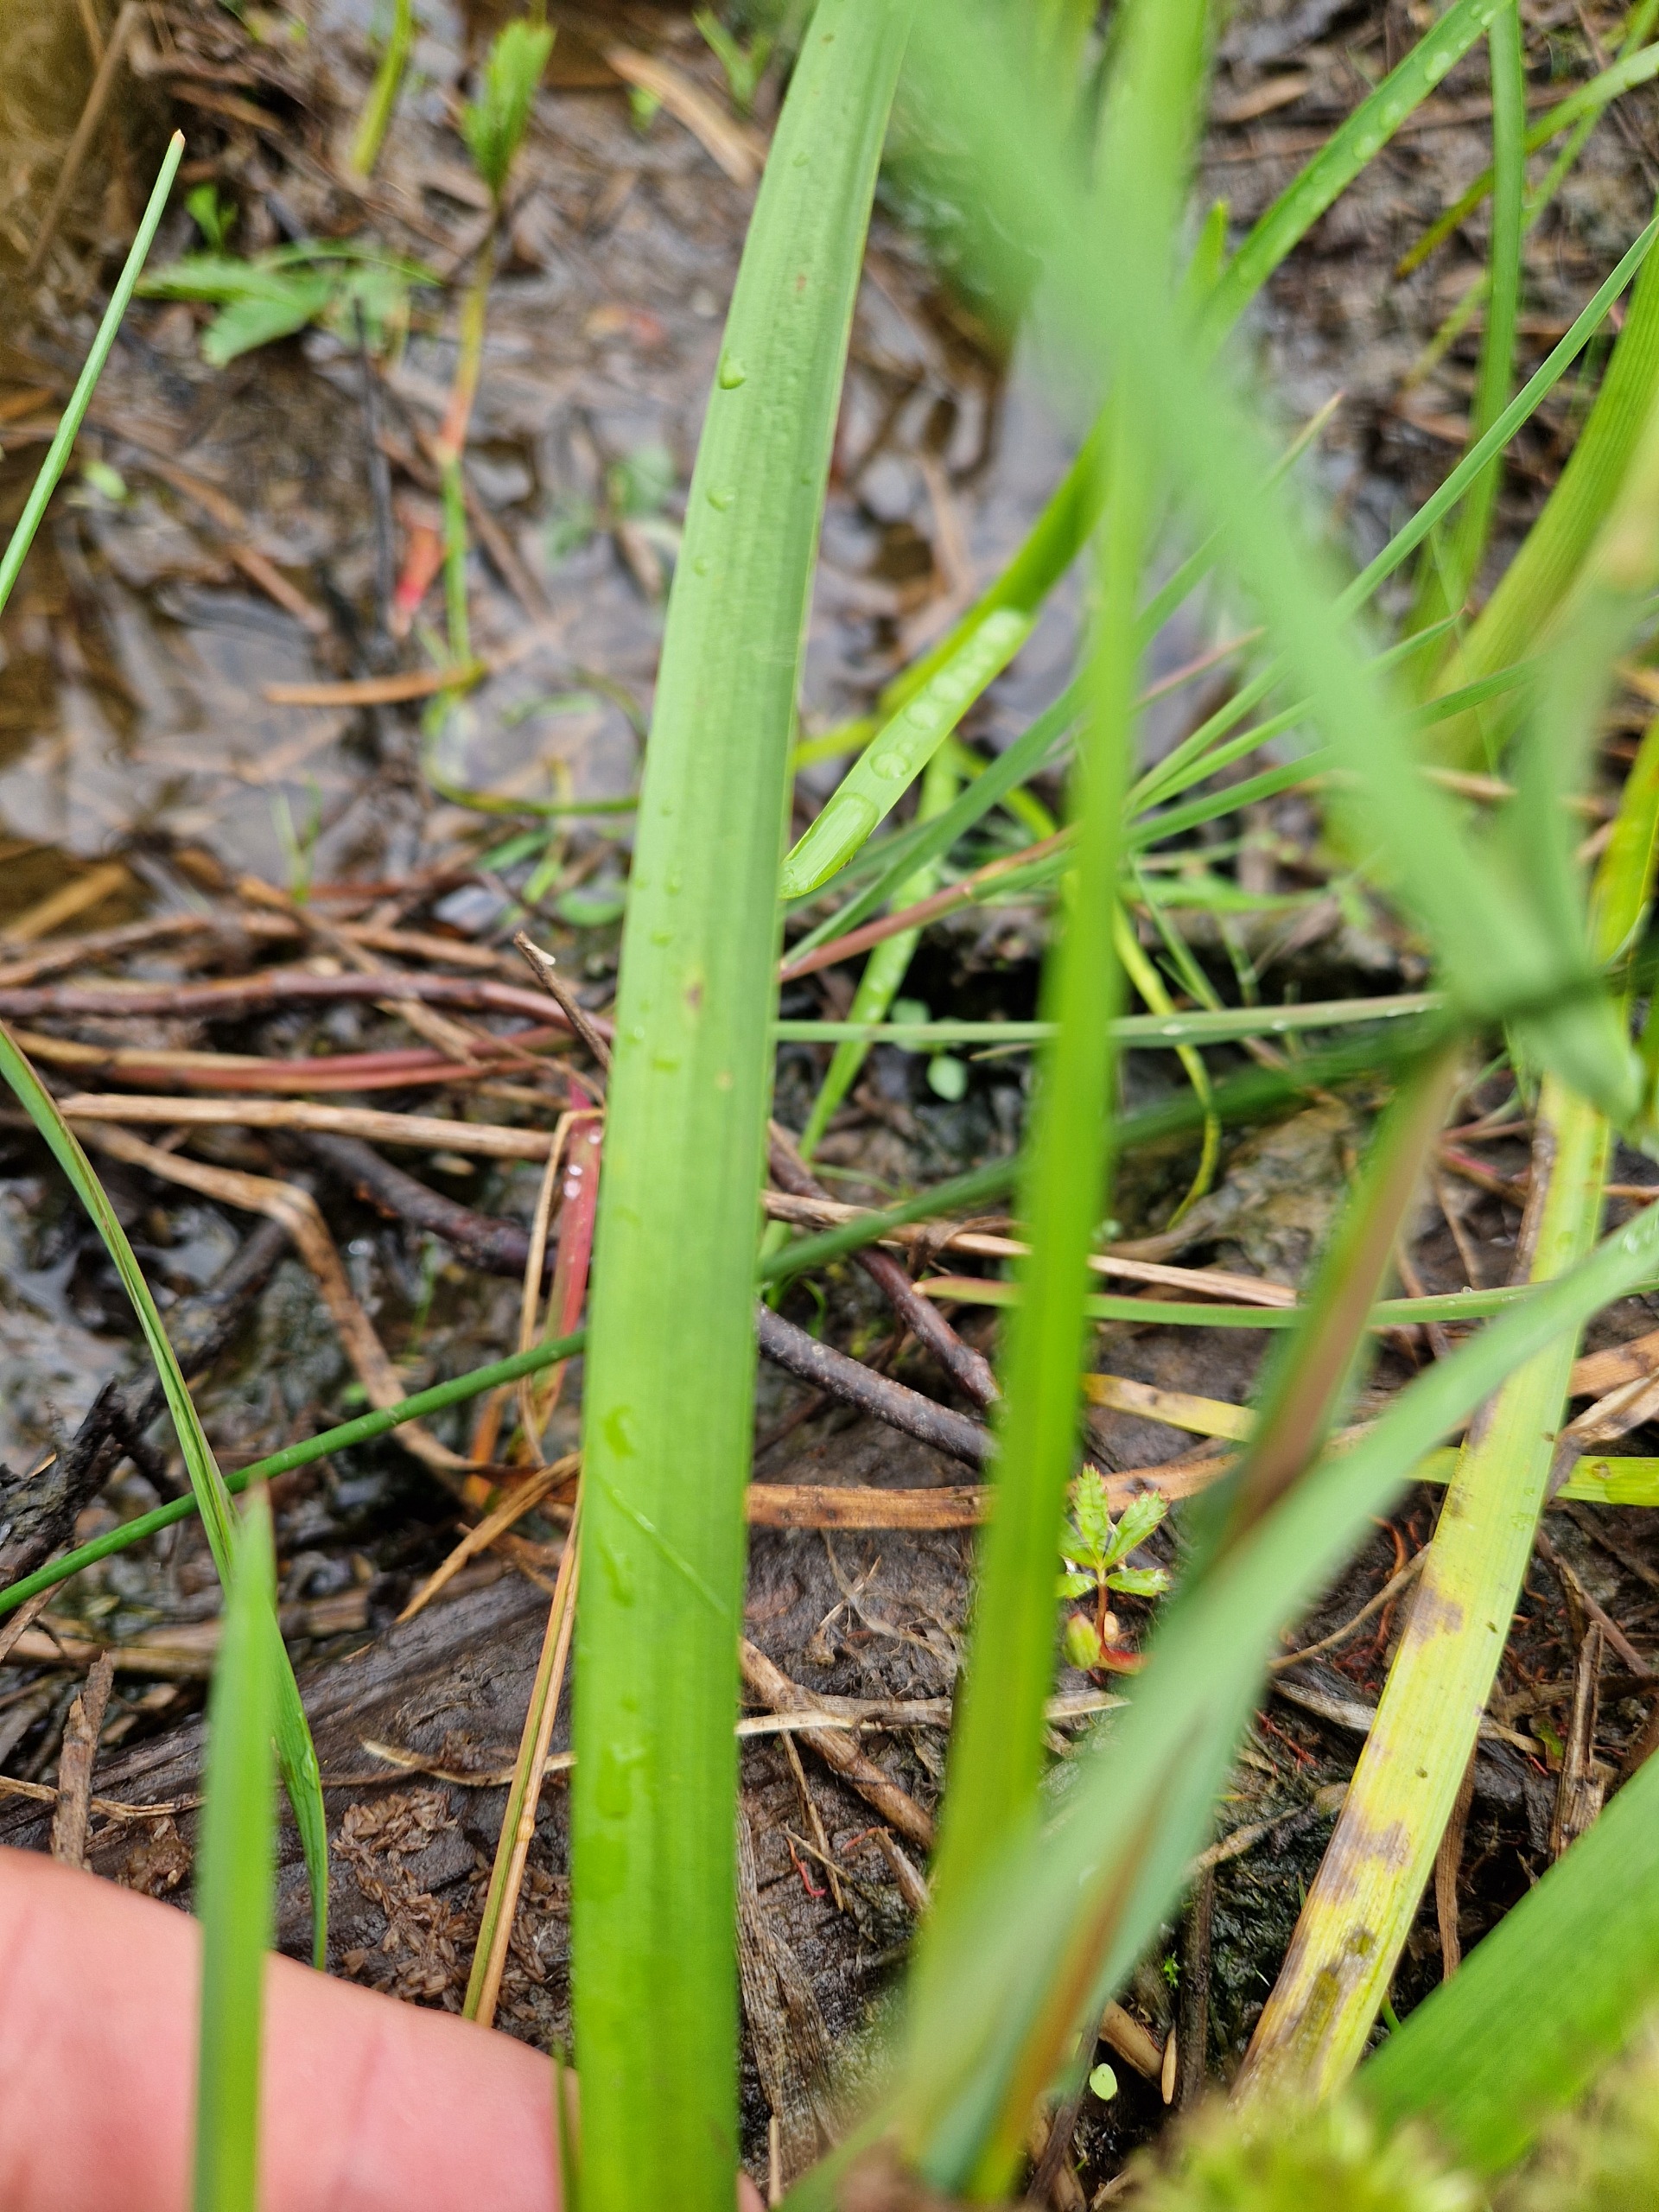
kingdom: Plantae
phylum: Tracheophyta
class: Liliopsida
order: Poales
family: Typhaceae
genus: Sparganium
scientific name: Sparganium emersum
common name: Enkelt pindsvineknop
